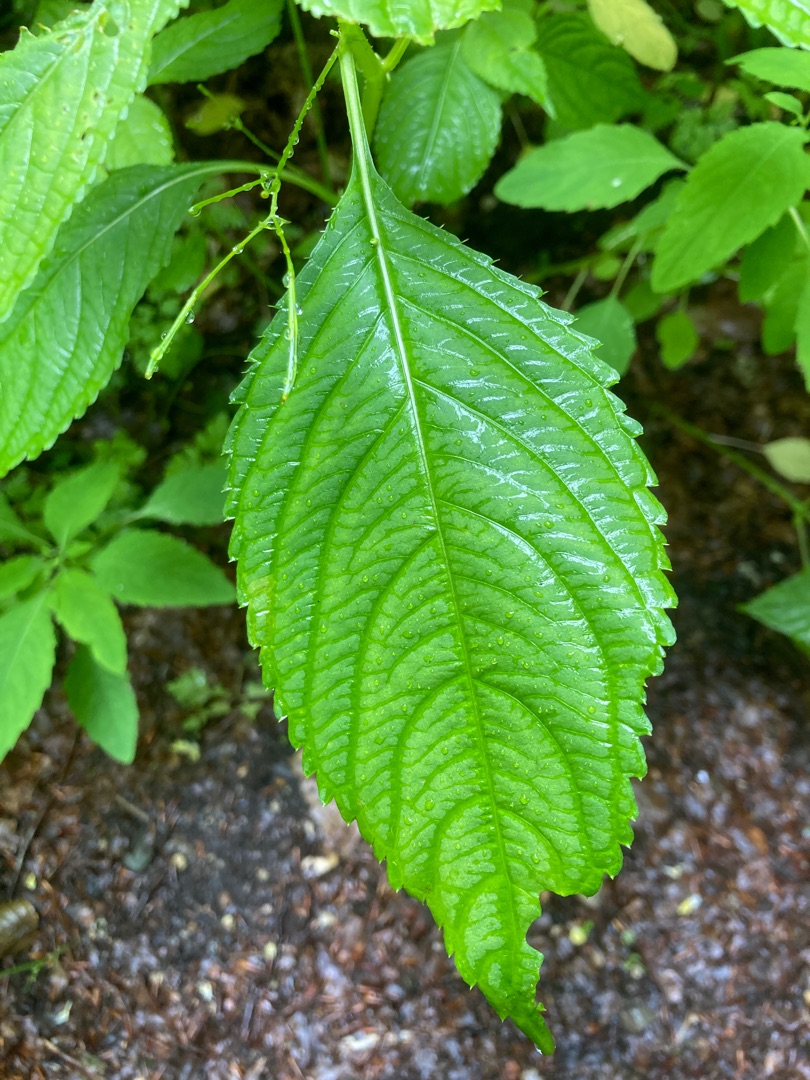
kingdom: Plantae
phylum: Tracheophyta
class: Magnoliopsida
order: Ericales
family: Balsaminaceae
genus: Impatiens
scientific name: Impatiens parviflora
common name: Småblomstret balsamin
